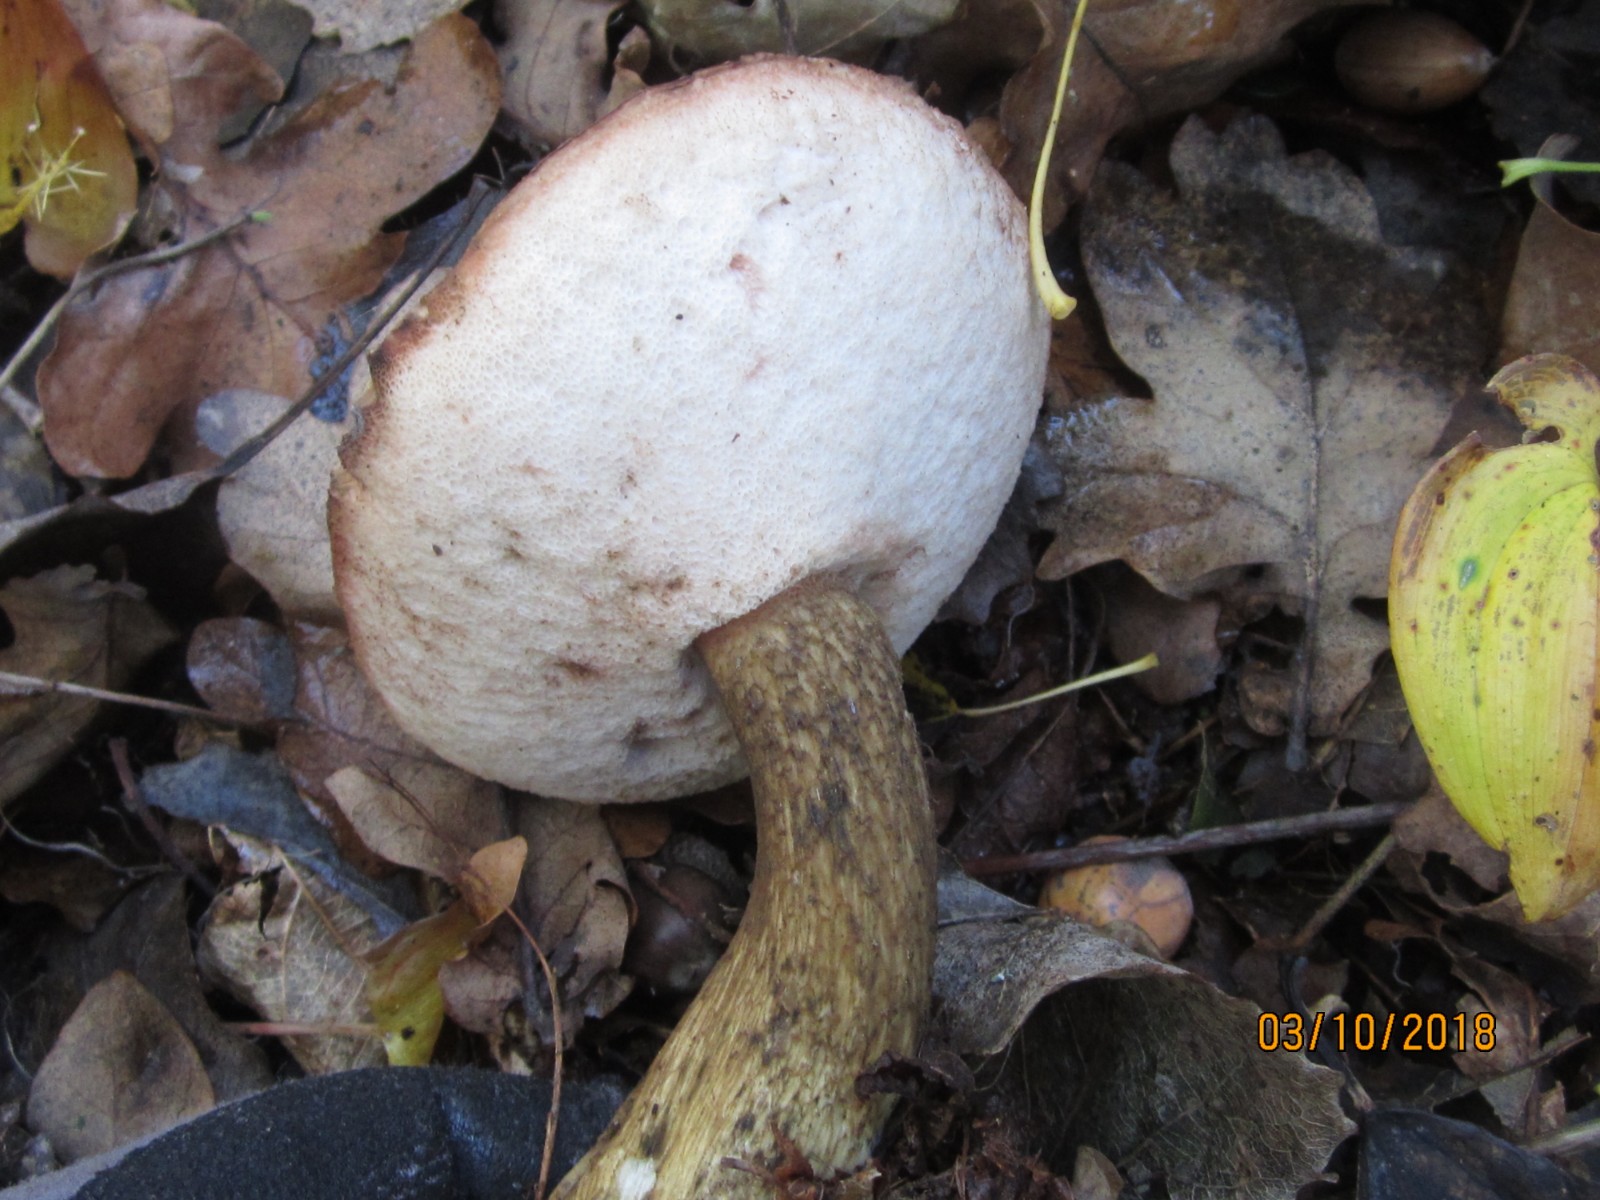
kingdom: Fungi
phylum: Basidiomycota
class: Agaricomycetes
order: Boletales
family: Boletaceae
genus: Tylopilus
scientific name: Tylopilus felleus
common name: galderørhat
